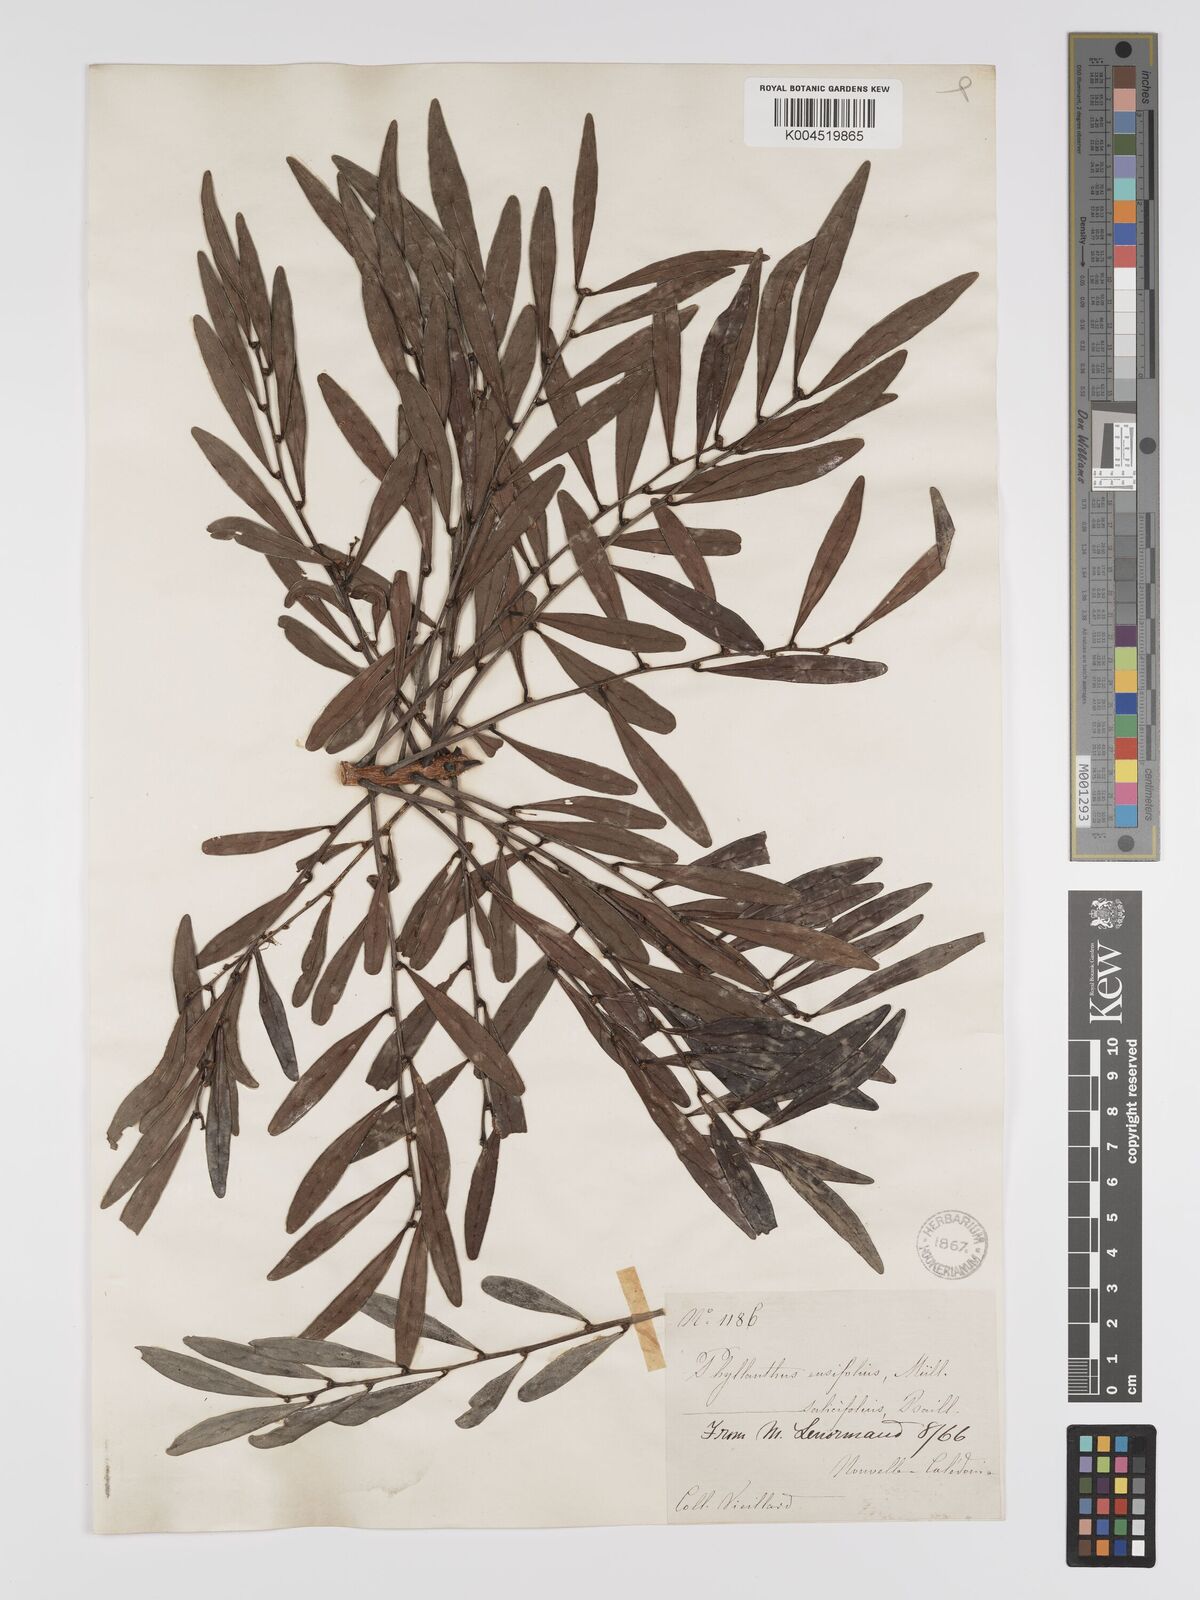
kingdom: Plantae
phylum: Tracheophyta
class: Magnoliopsida
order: Malpighiales
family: Phyllanthaceae
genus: Phyllanthus
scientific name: Phyllanthus salicifolius
